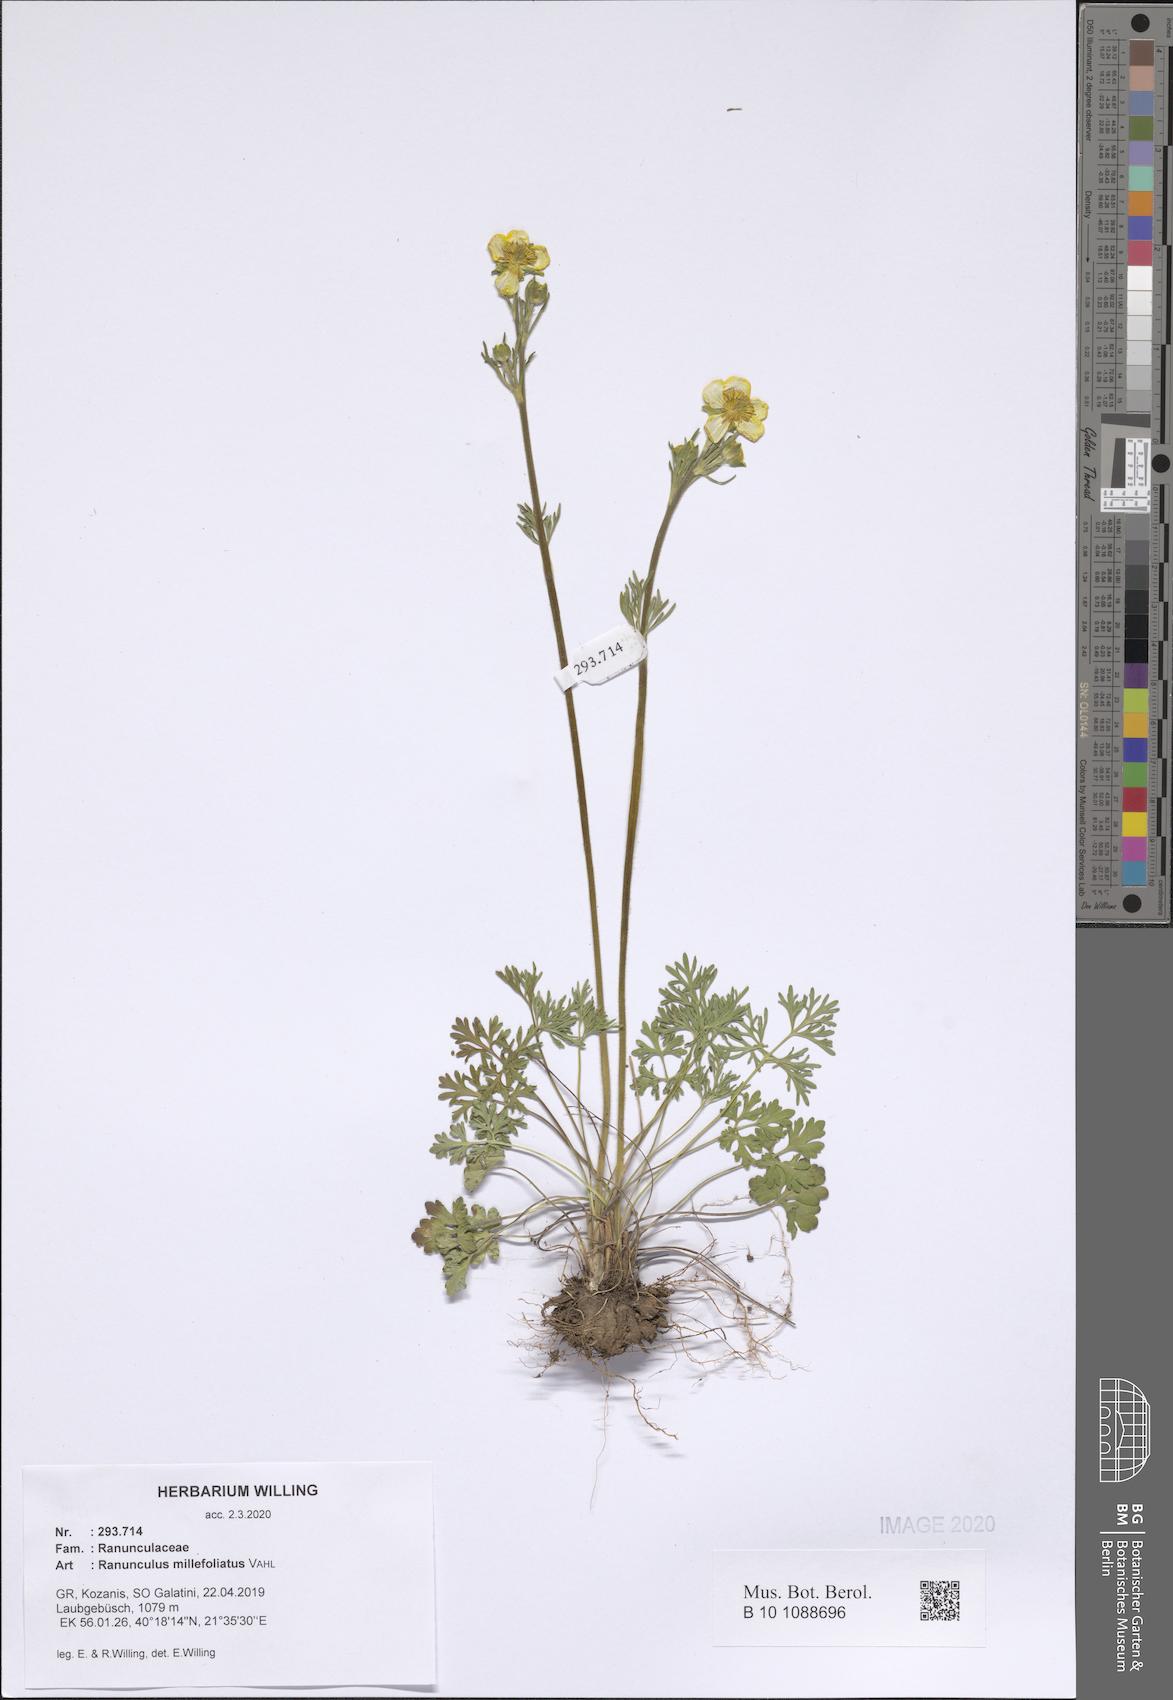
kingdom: Plantae
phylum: Tracheophyta
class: Magnoliopsida
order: Ranunculales
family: Ranunculaceae
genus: Ranunculus
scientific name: Ranunculus millefoliatus
